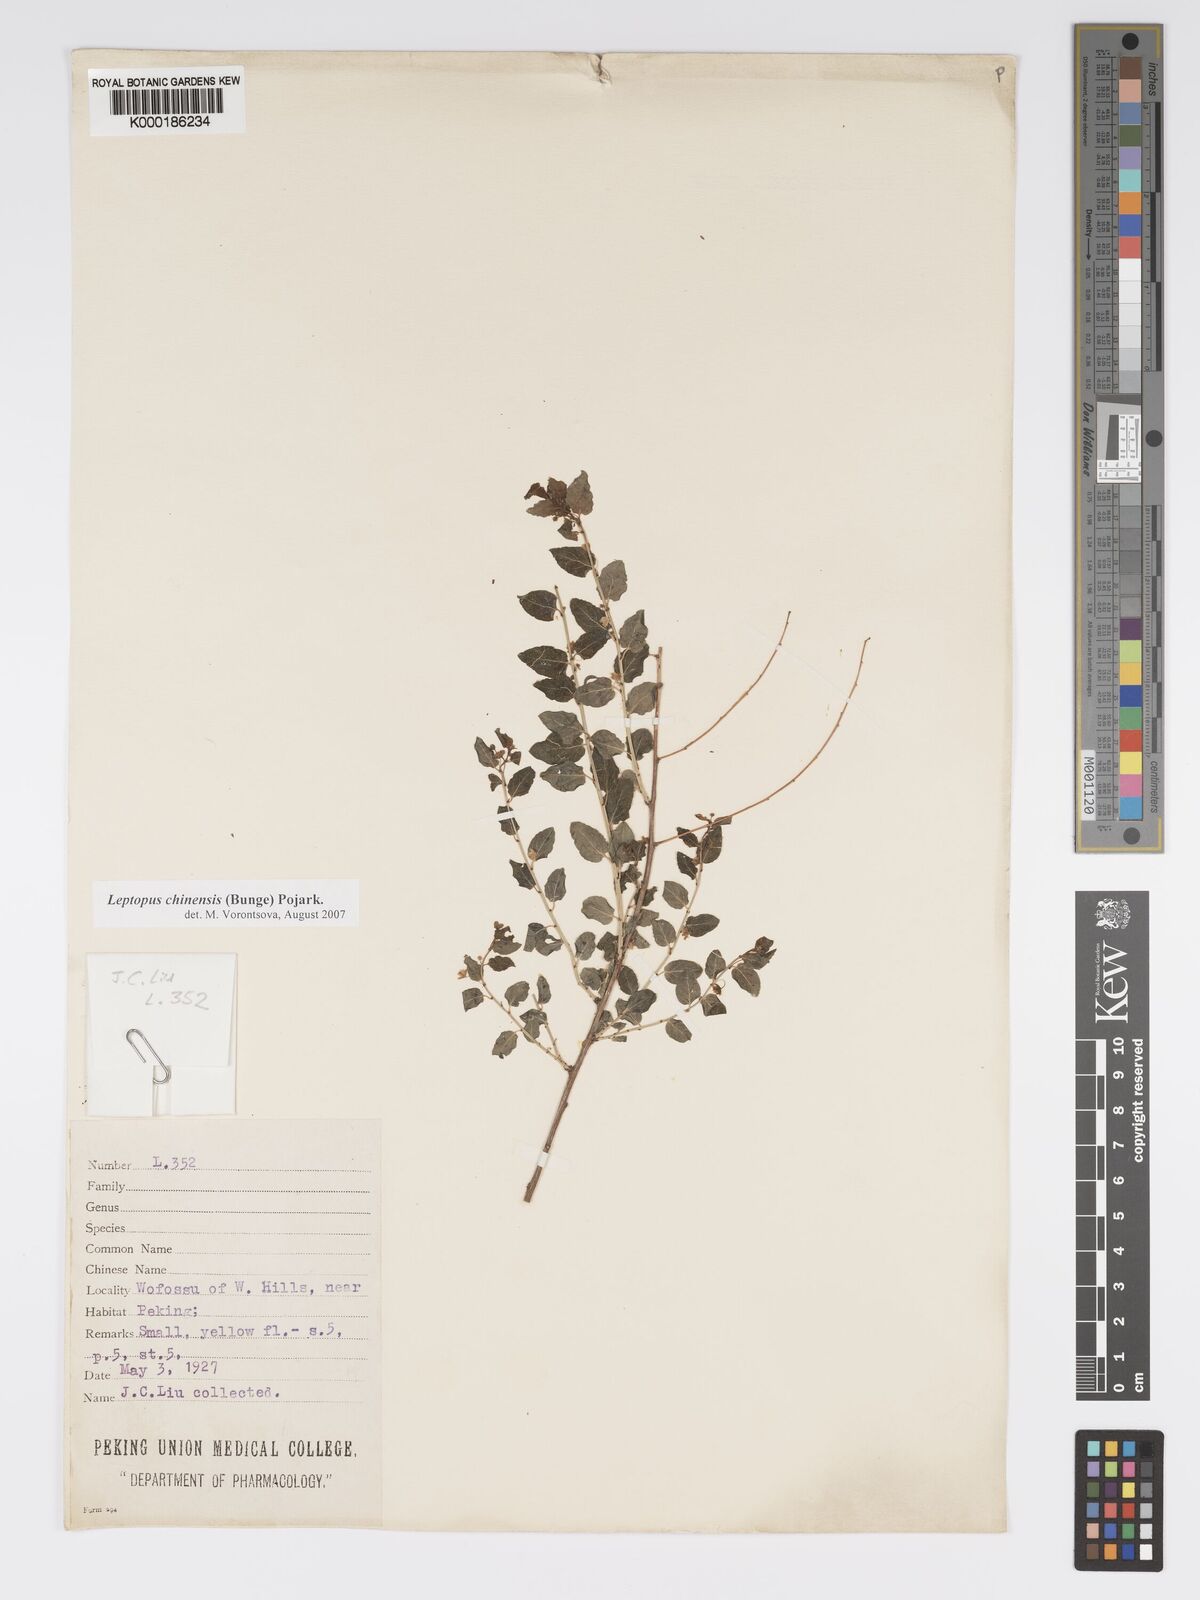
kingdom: Plantae
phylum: Tracheophyta
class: Magnoliopsida
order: Malpighiales
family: Phyllanthaceae
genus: Leptopus
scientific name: Leptopus chinensis
